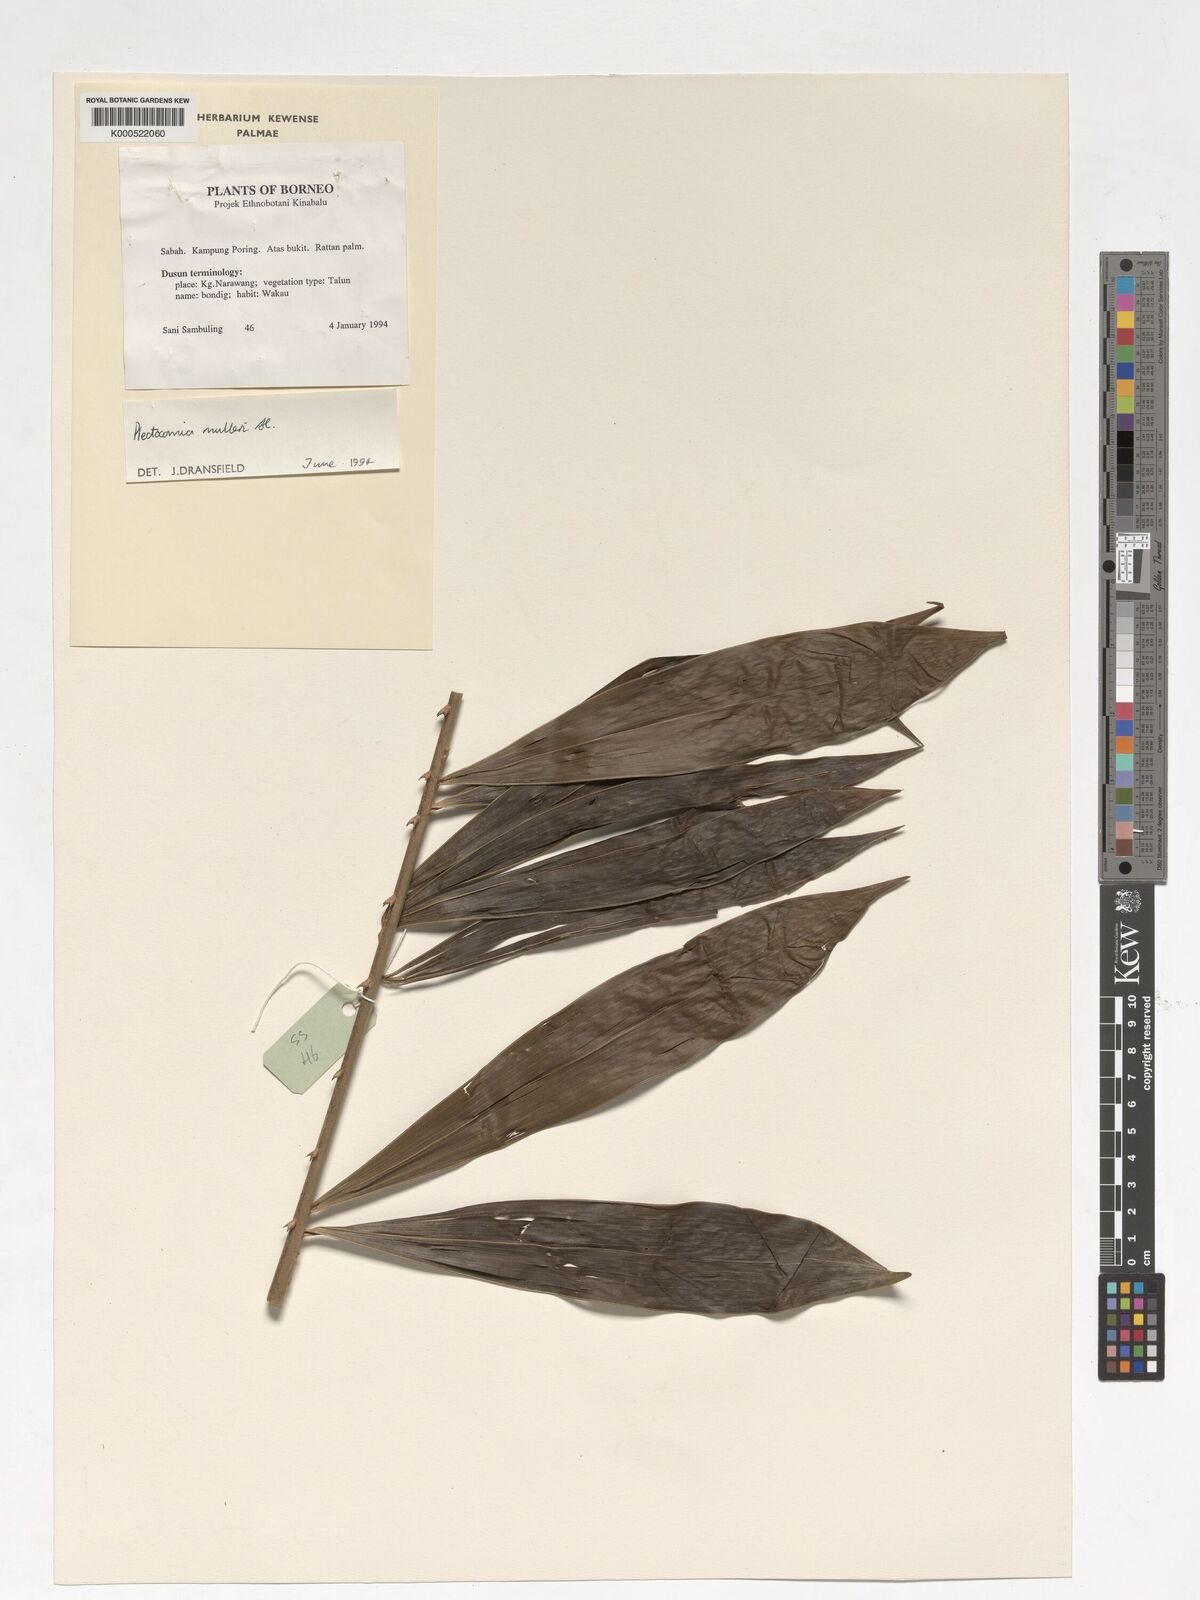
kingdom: Plantae
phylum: Tracheophyta
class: Liliopsida
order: Arecales
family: Arecaceae
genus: Plectocomia
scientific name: Plectocomia mulleri
